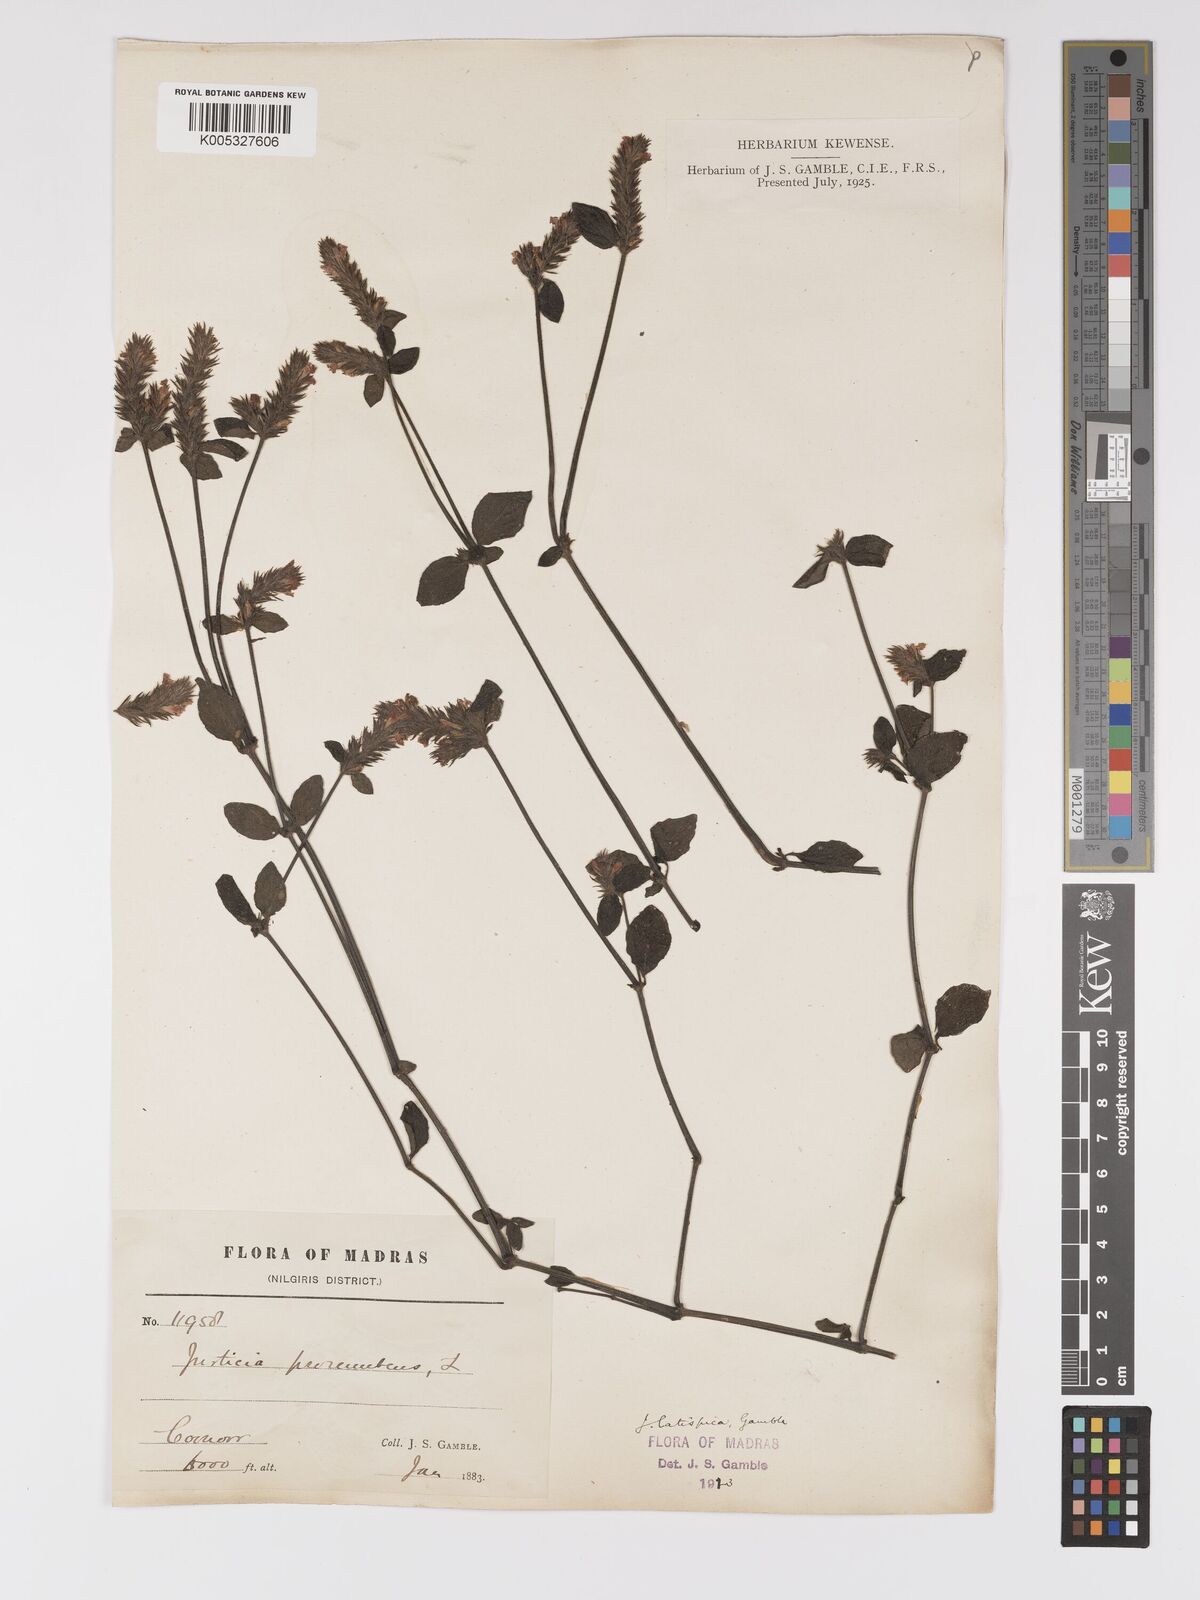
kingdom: Plantae
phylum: Tracheophyta
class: Magnoliopsida
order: Lamiales
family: Acanthaceae
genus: Rostellularia
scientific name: Rostellularia latispica
